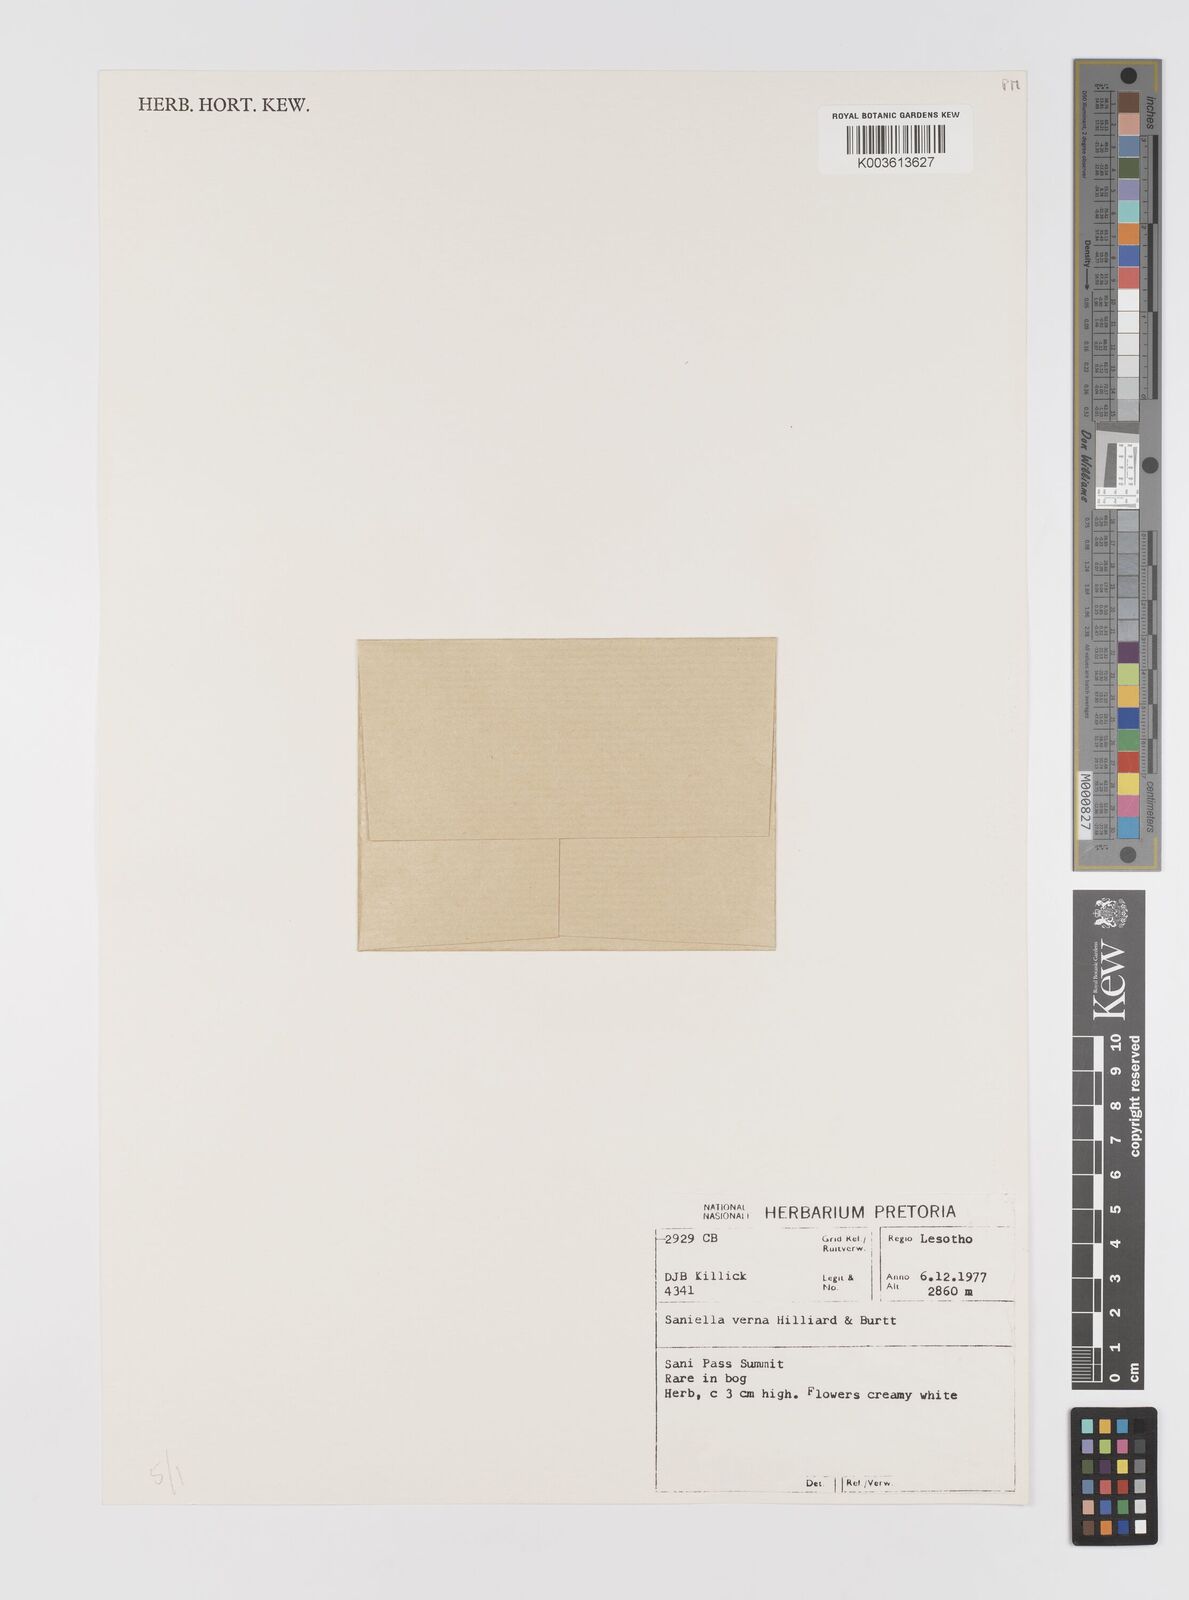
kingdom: Plantae
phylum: Tracheophyta
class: Liliopsida
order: Asparagales
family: Hypoxidaceae
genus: Pauridia
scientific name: Pauridia verna
